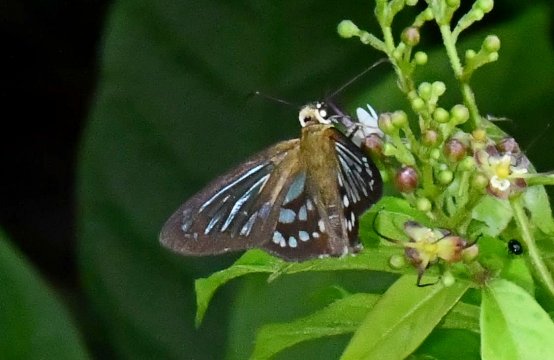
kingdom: Animalia
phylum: Arthropoda
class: Insecta
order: Lepidoptera
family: Hesperiidae
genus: Phanus
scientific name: Phanus marshallii
